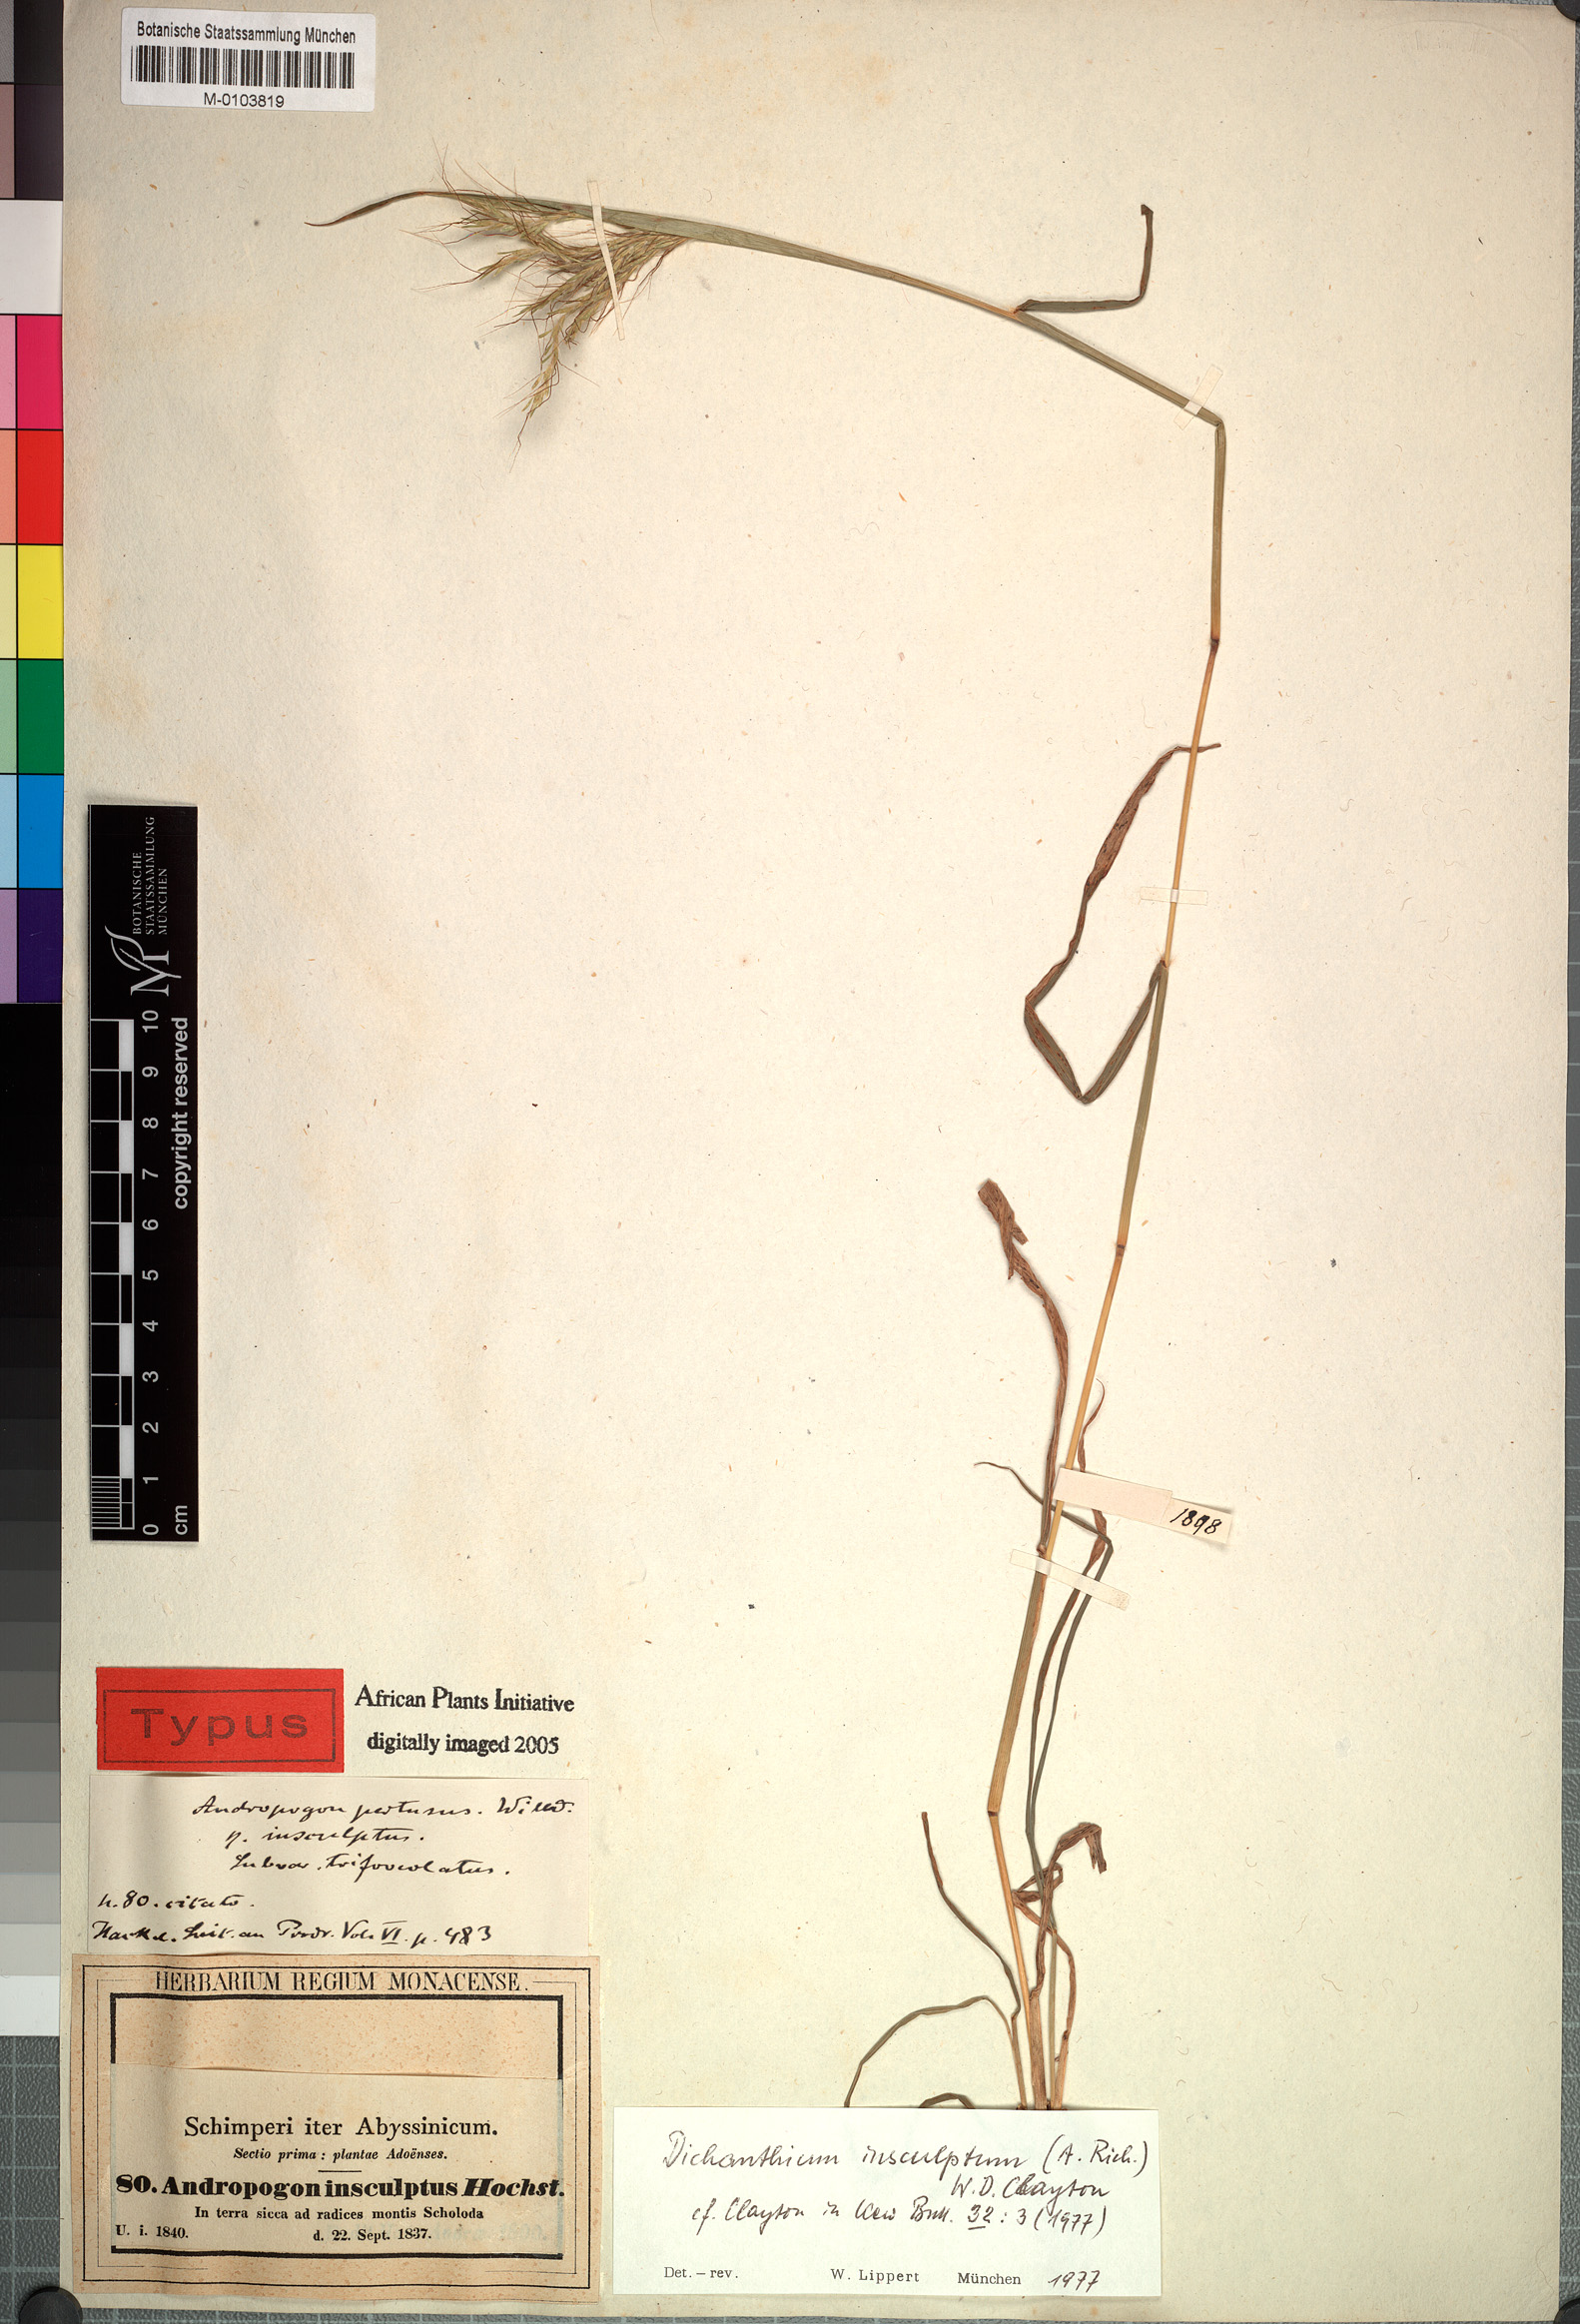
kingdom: Plantae
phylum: Tracheophyta
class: Liliopsida
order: Poales
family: Poaceae
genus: Bothriochloa
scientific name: Bothriochloa insculpta
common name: Creeping-bluegrass
